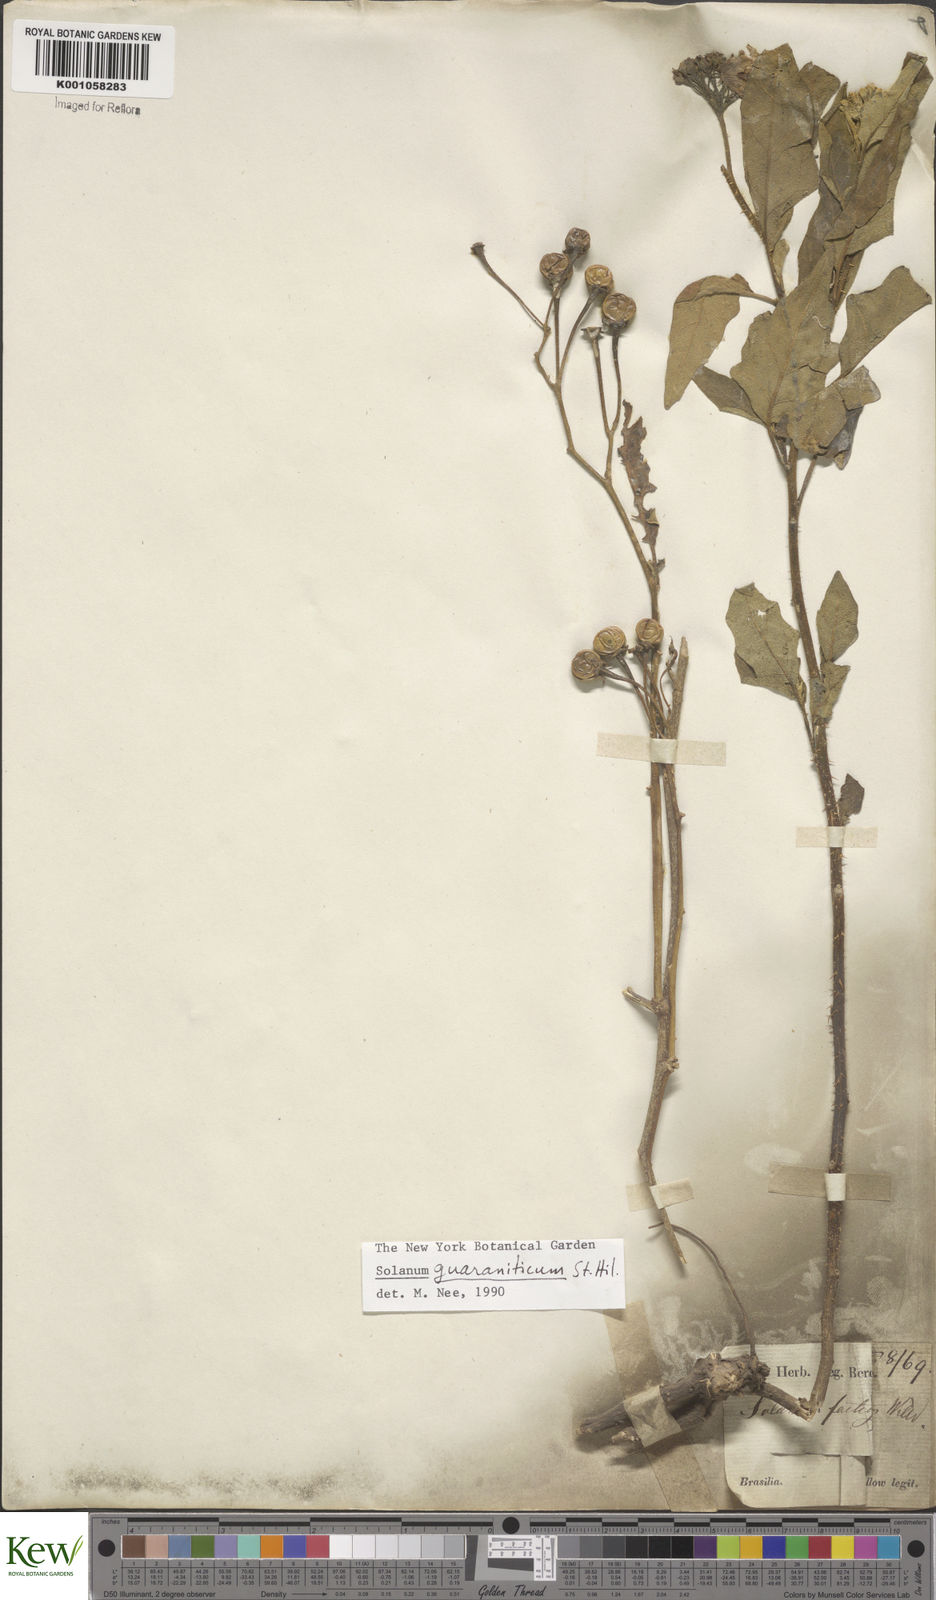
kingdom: Plantae
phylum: Tracheophyta
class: Magnoliopsida
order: Solanales
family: Solanaceae
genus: Solanum
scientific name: Solanum guaraniticum
